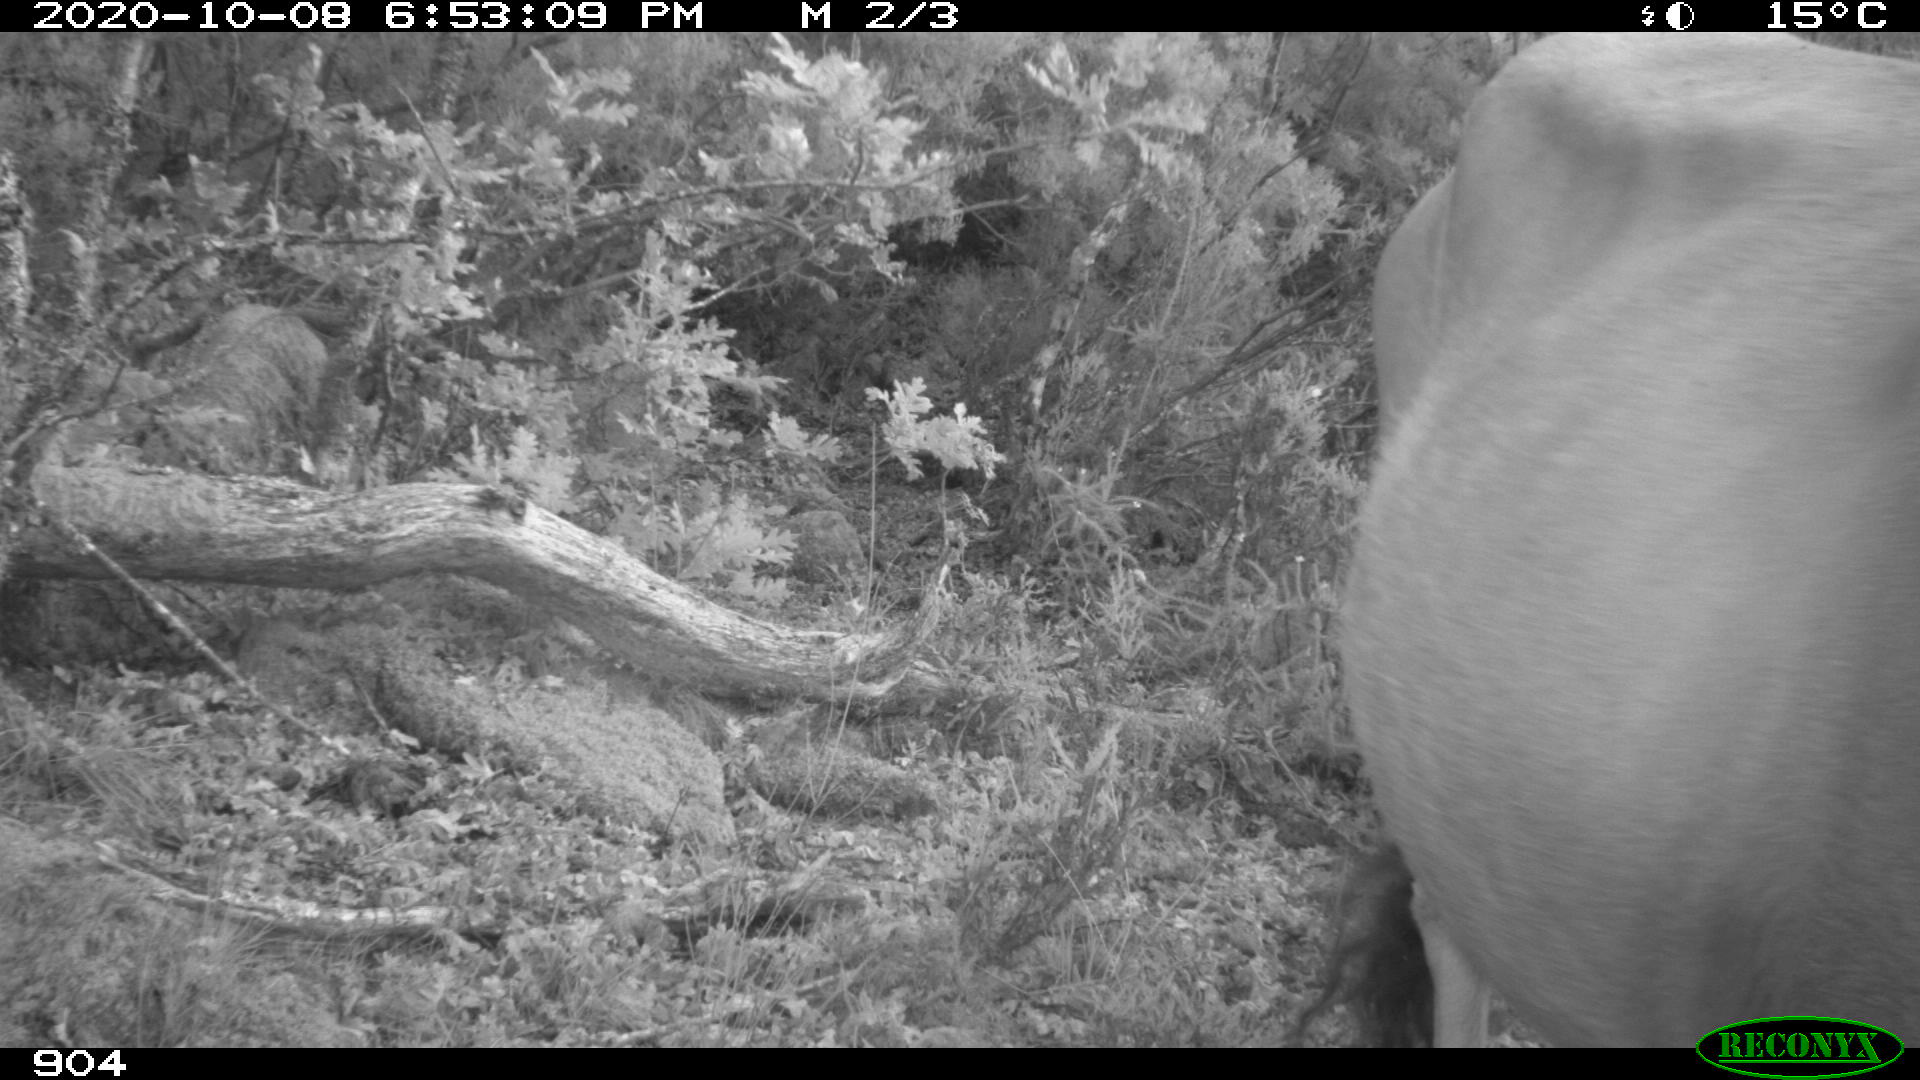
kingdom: Animalia
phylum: Chordata
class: Mammalia
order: Artiodactyla
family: Bovidae
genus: Bos
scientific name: Bos taurus
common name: Domesticated cattle
